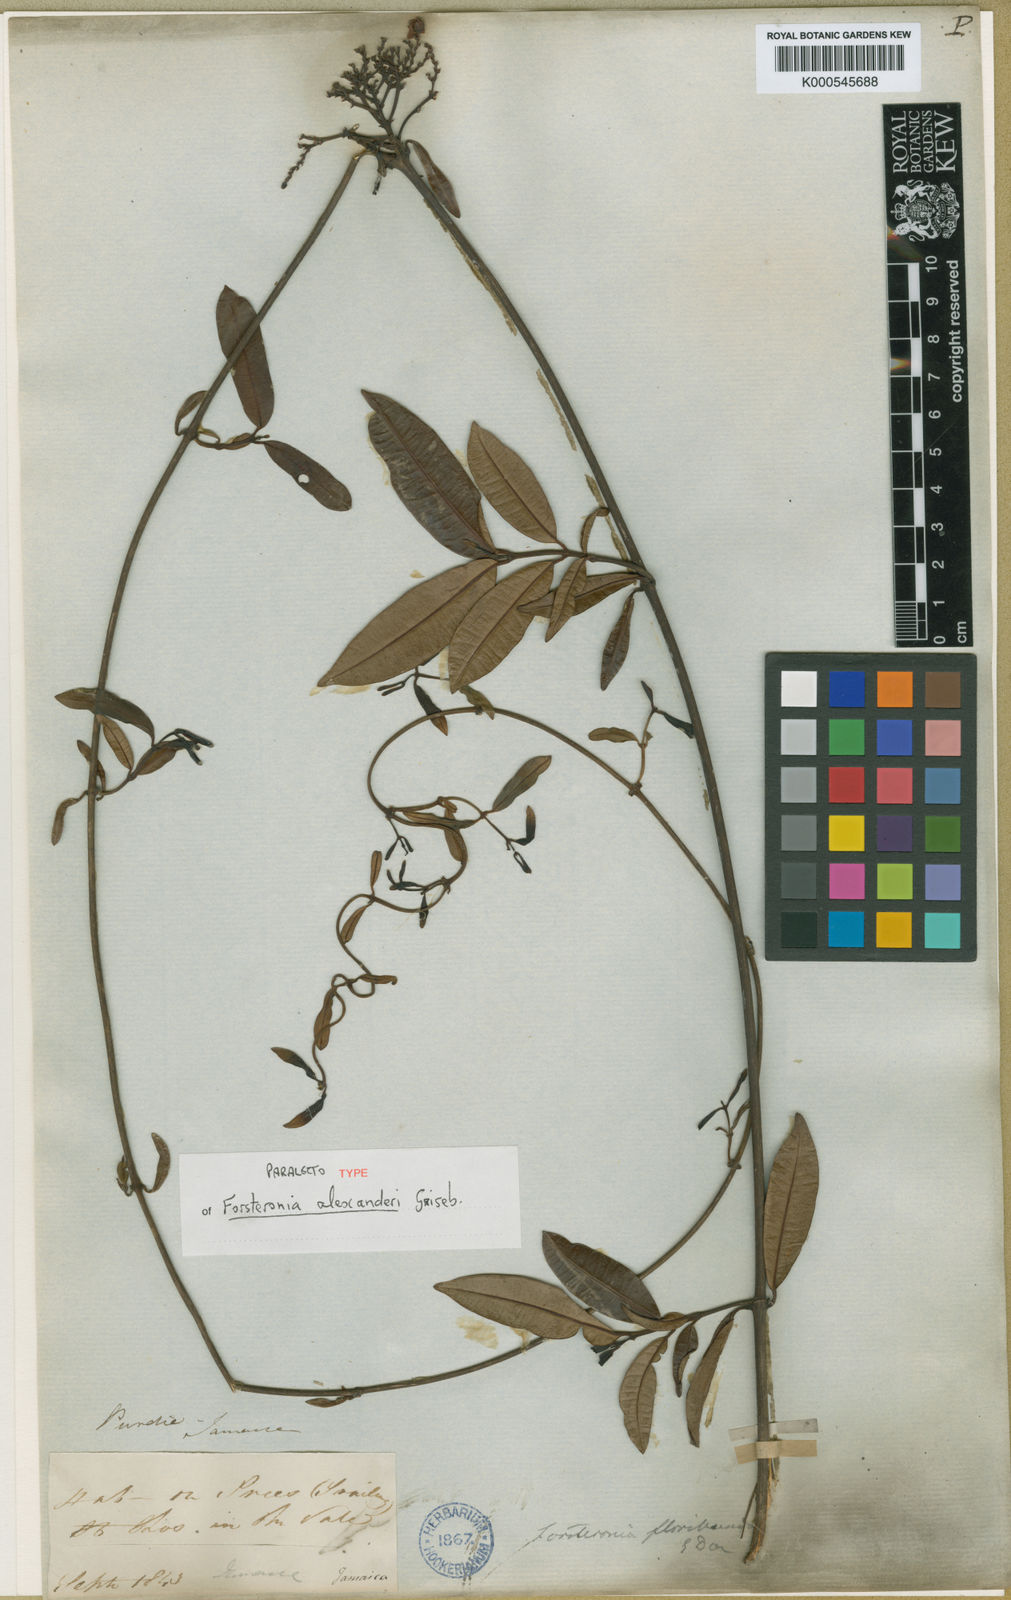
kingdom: Plantae
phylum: Tracheophyta
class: Magnoliopsida
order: Gentianales
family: Apocynaceae
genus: Pinochia
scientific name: Pinochia floribunda
